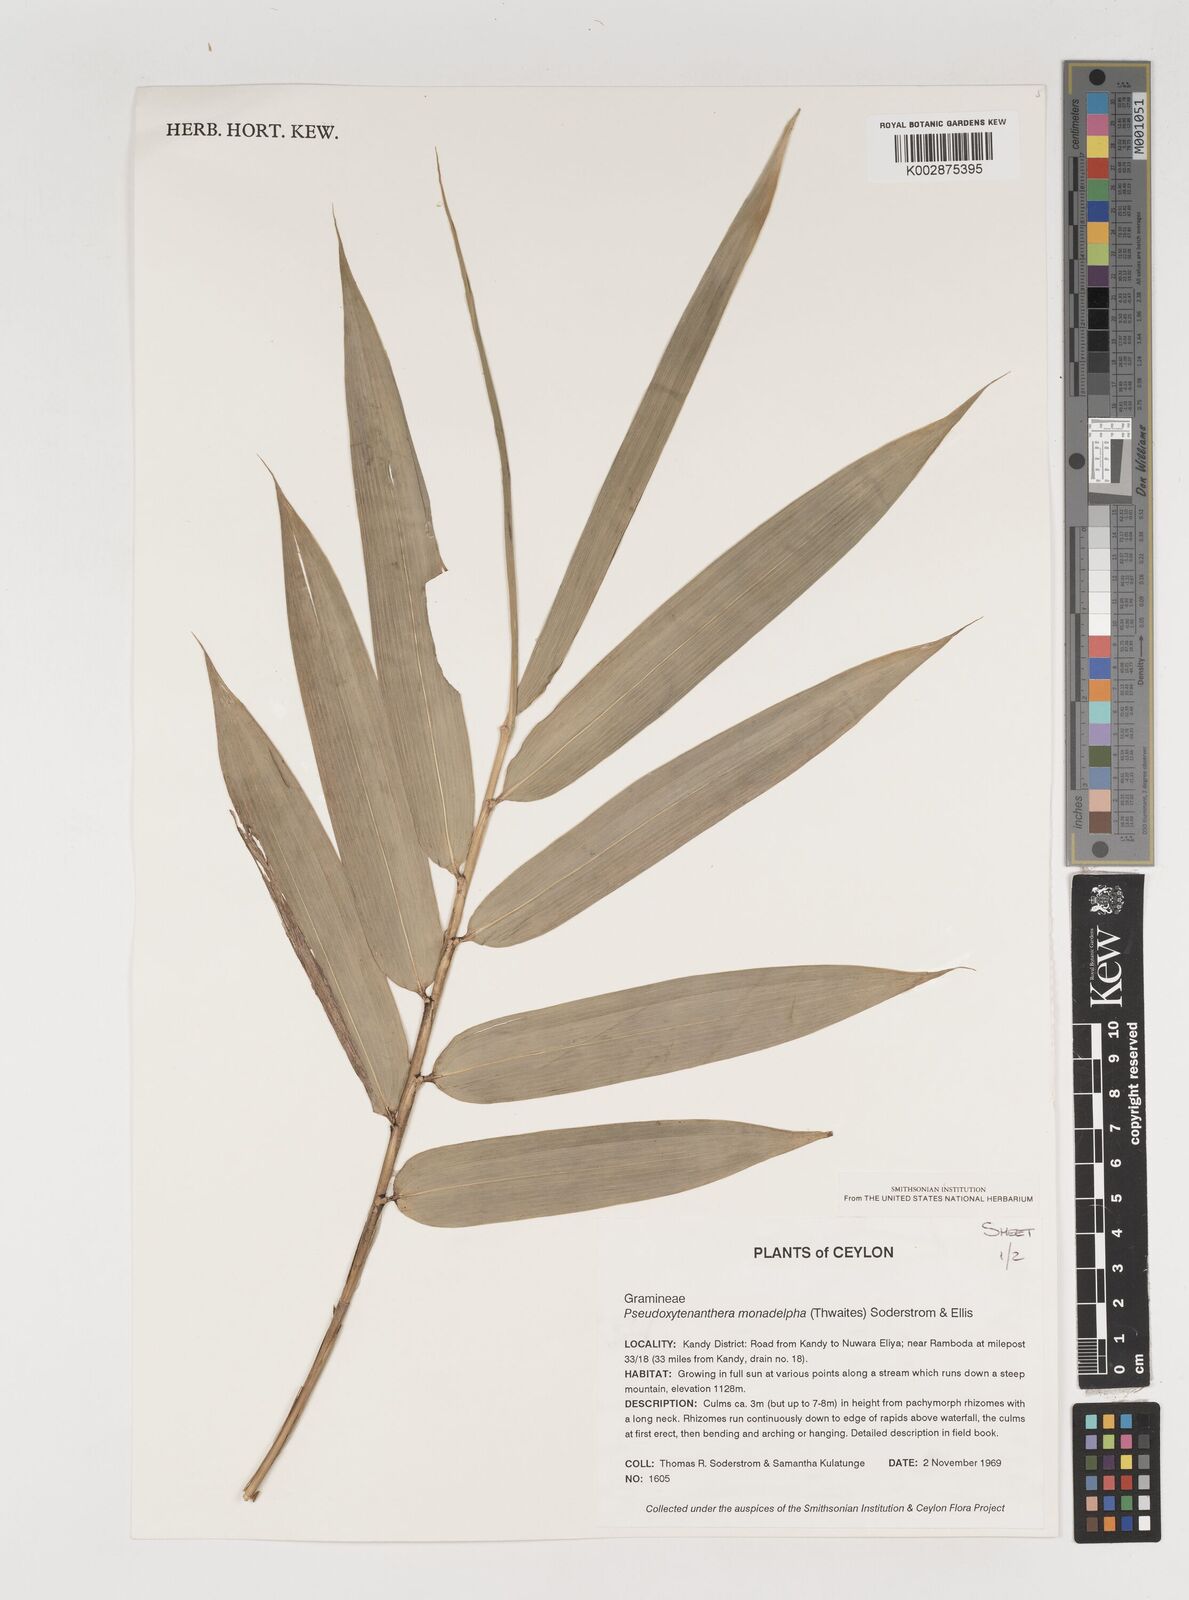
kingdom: Plantae
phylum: Tracheophyta
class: Liliopsida
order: Poales
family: Poaceae
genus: Dendrocalamus
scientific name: Dendrocalamus
